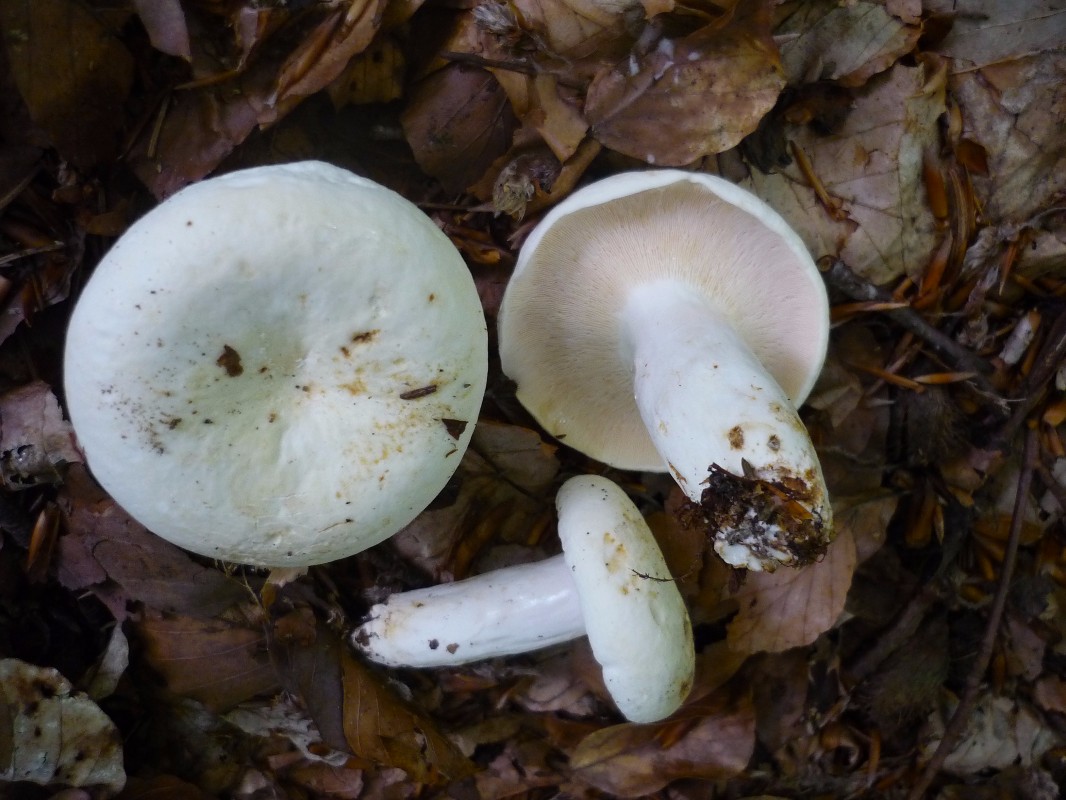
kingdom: Fungi
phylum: Basidiomycota
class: Agaricomycetes
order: Russulales
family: Russulaceae
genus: Lactifluus
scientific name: Lactifluus piperatus
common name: peber-mælkehat
